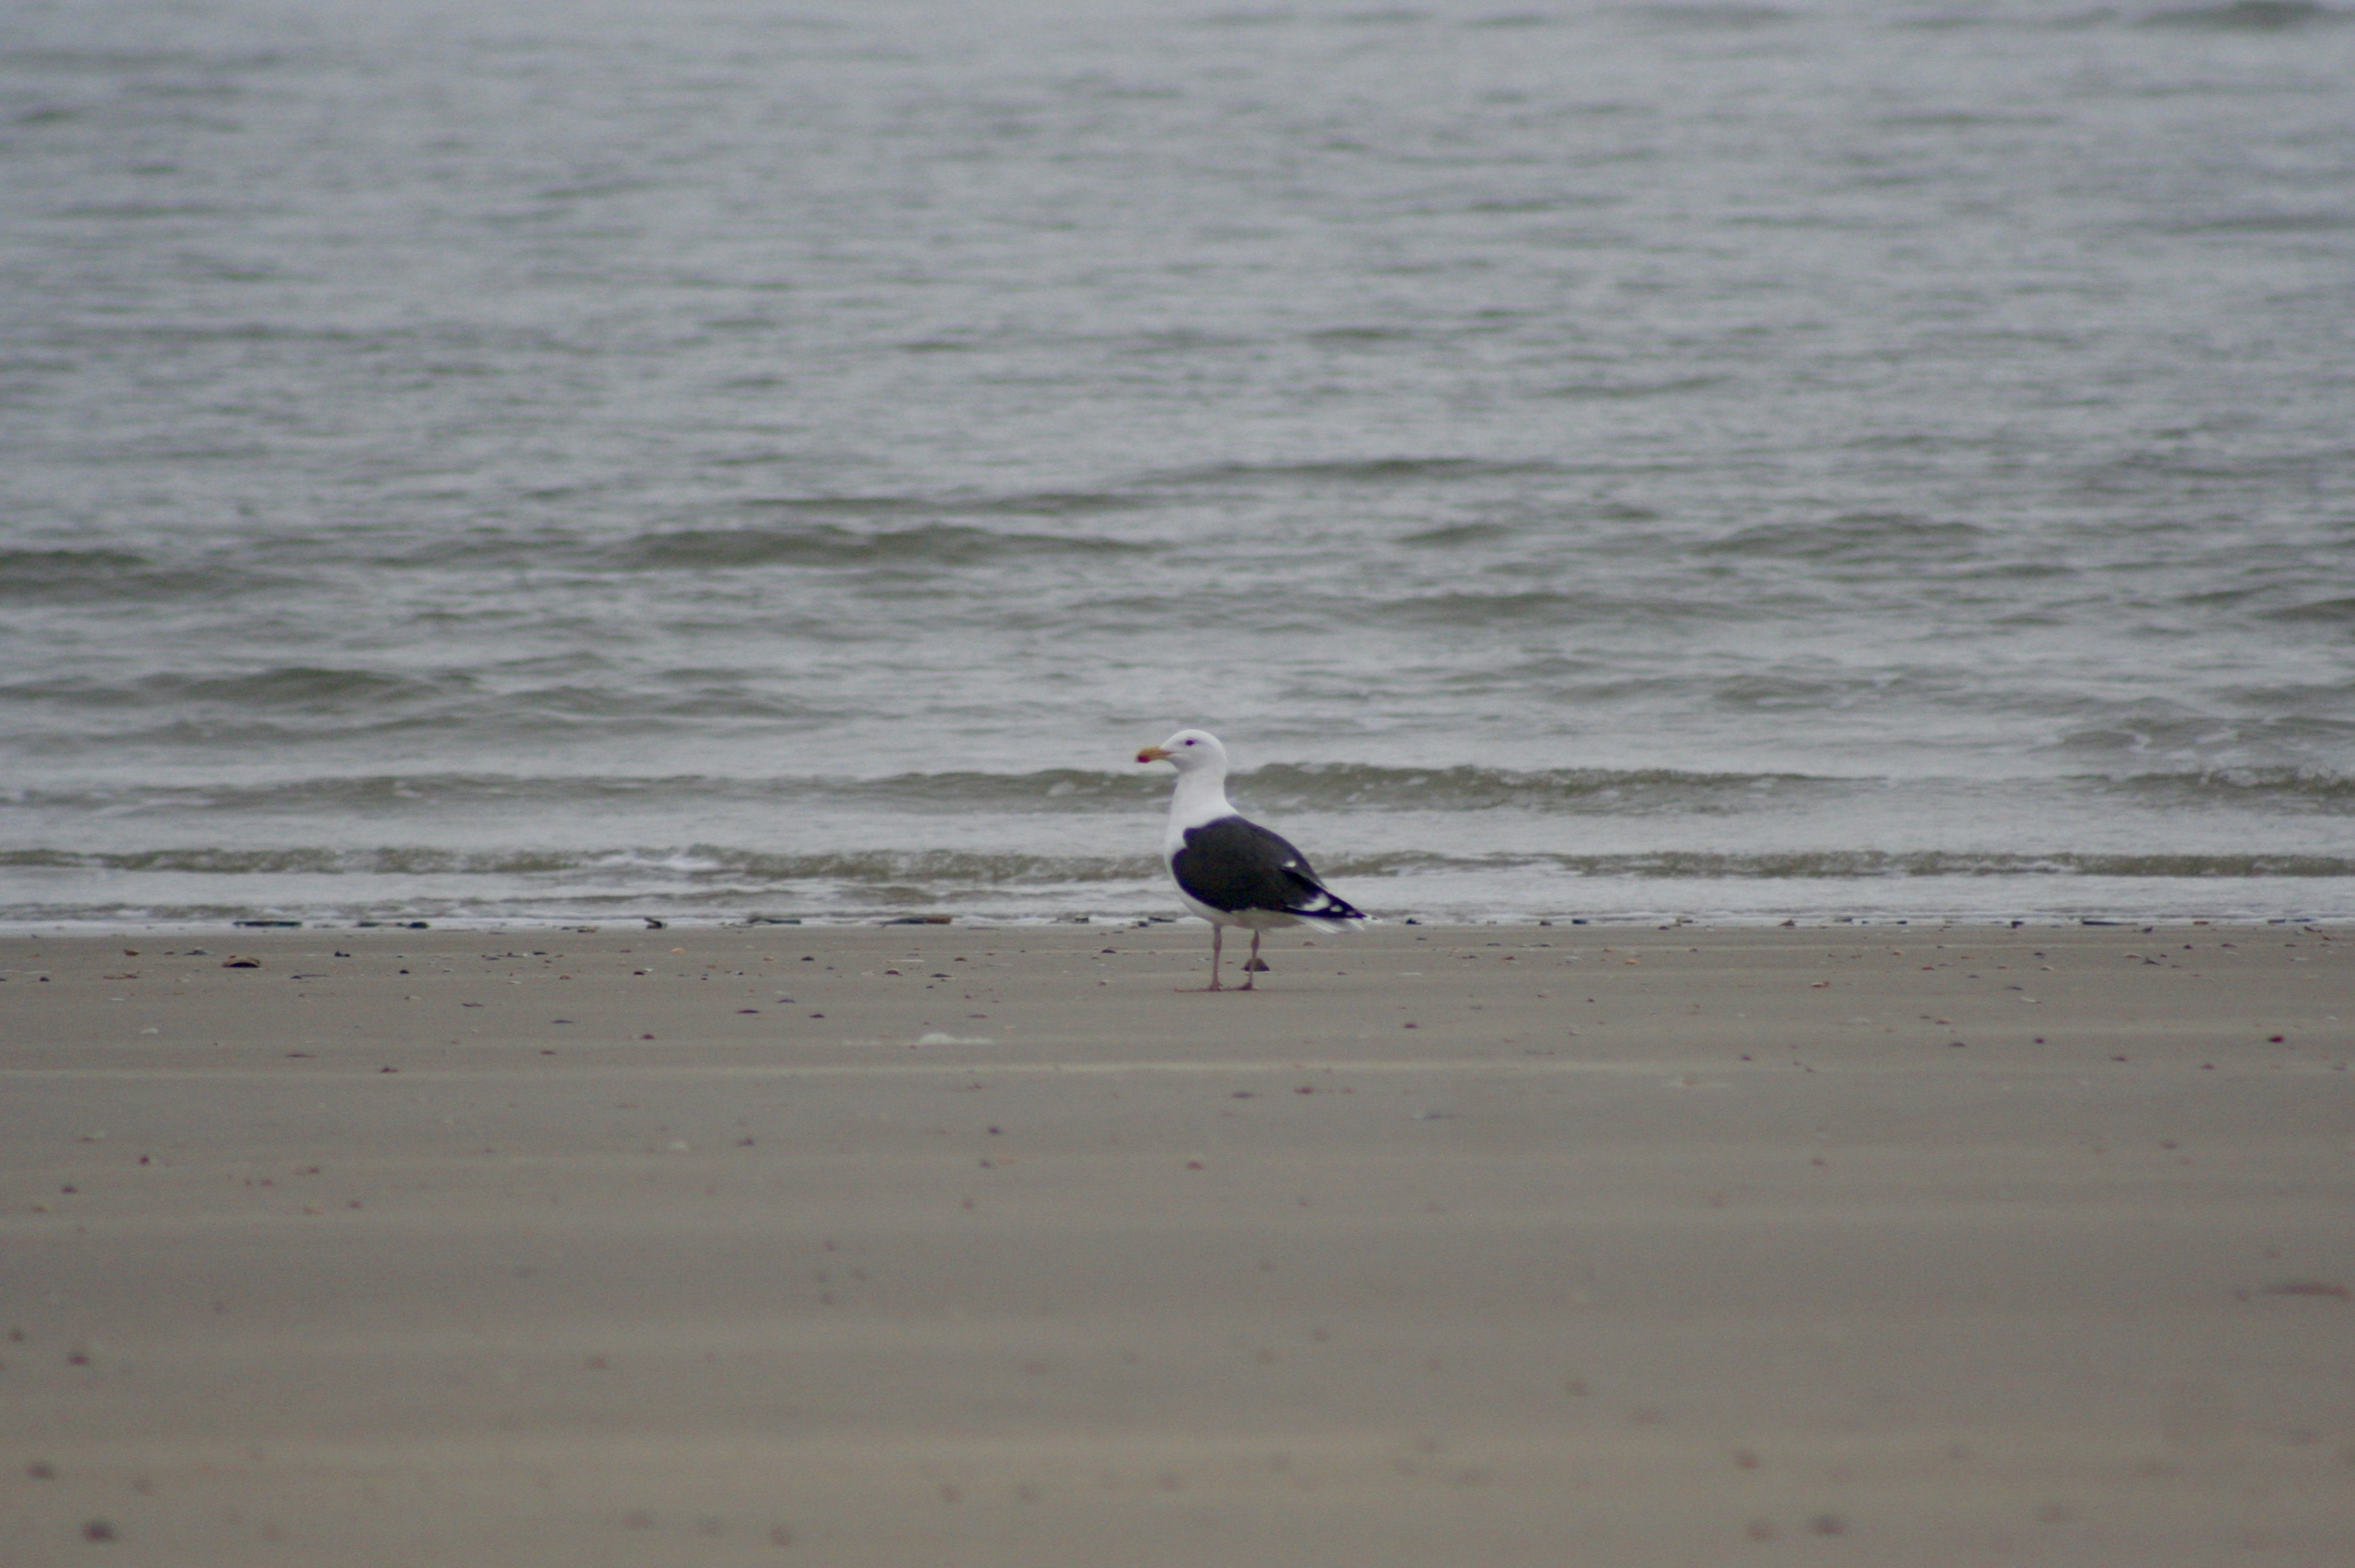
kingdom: Animalia
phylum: Chordata
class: Aves
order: Charadriiformes
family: Laridae
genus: Larus
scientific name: Larus marinus
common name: Svartbag
